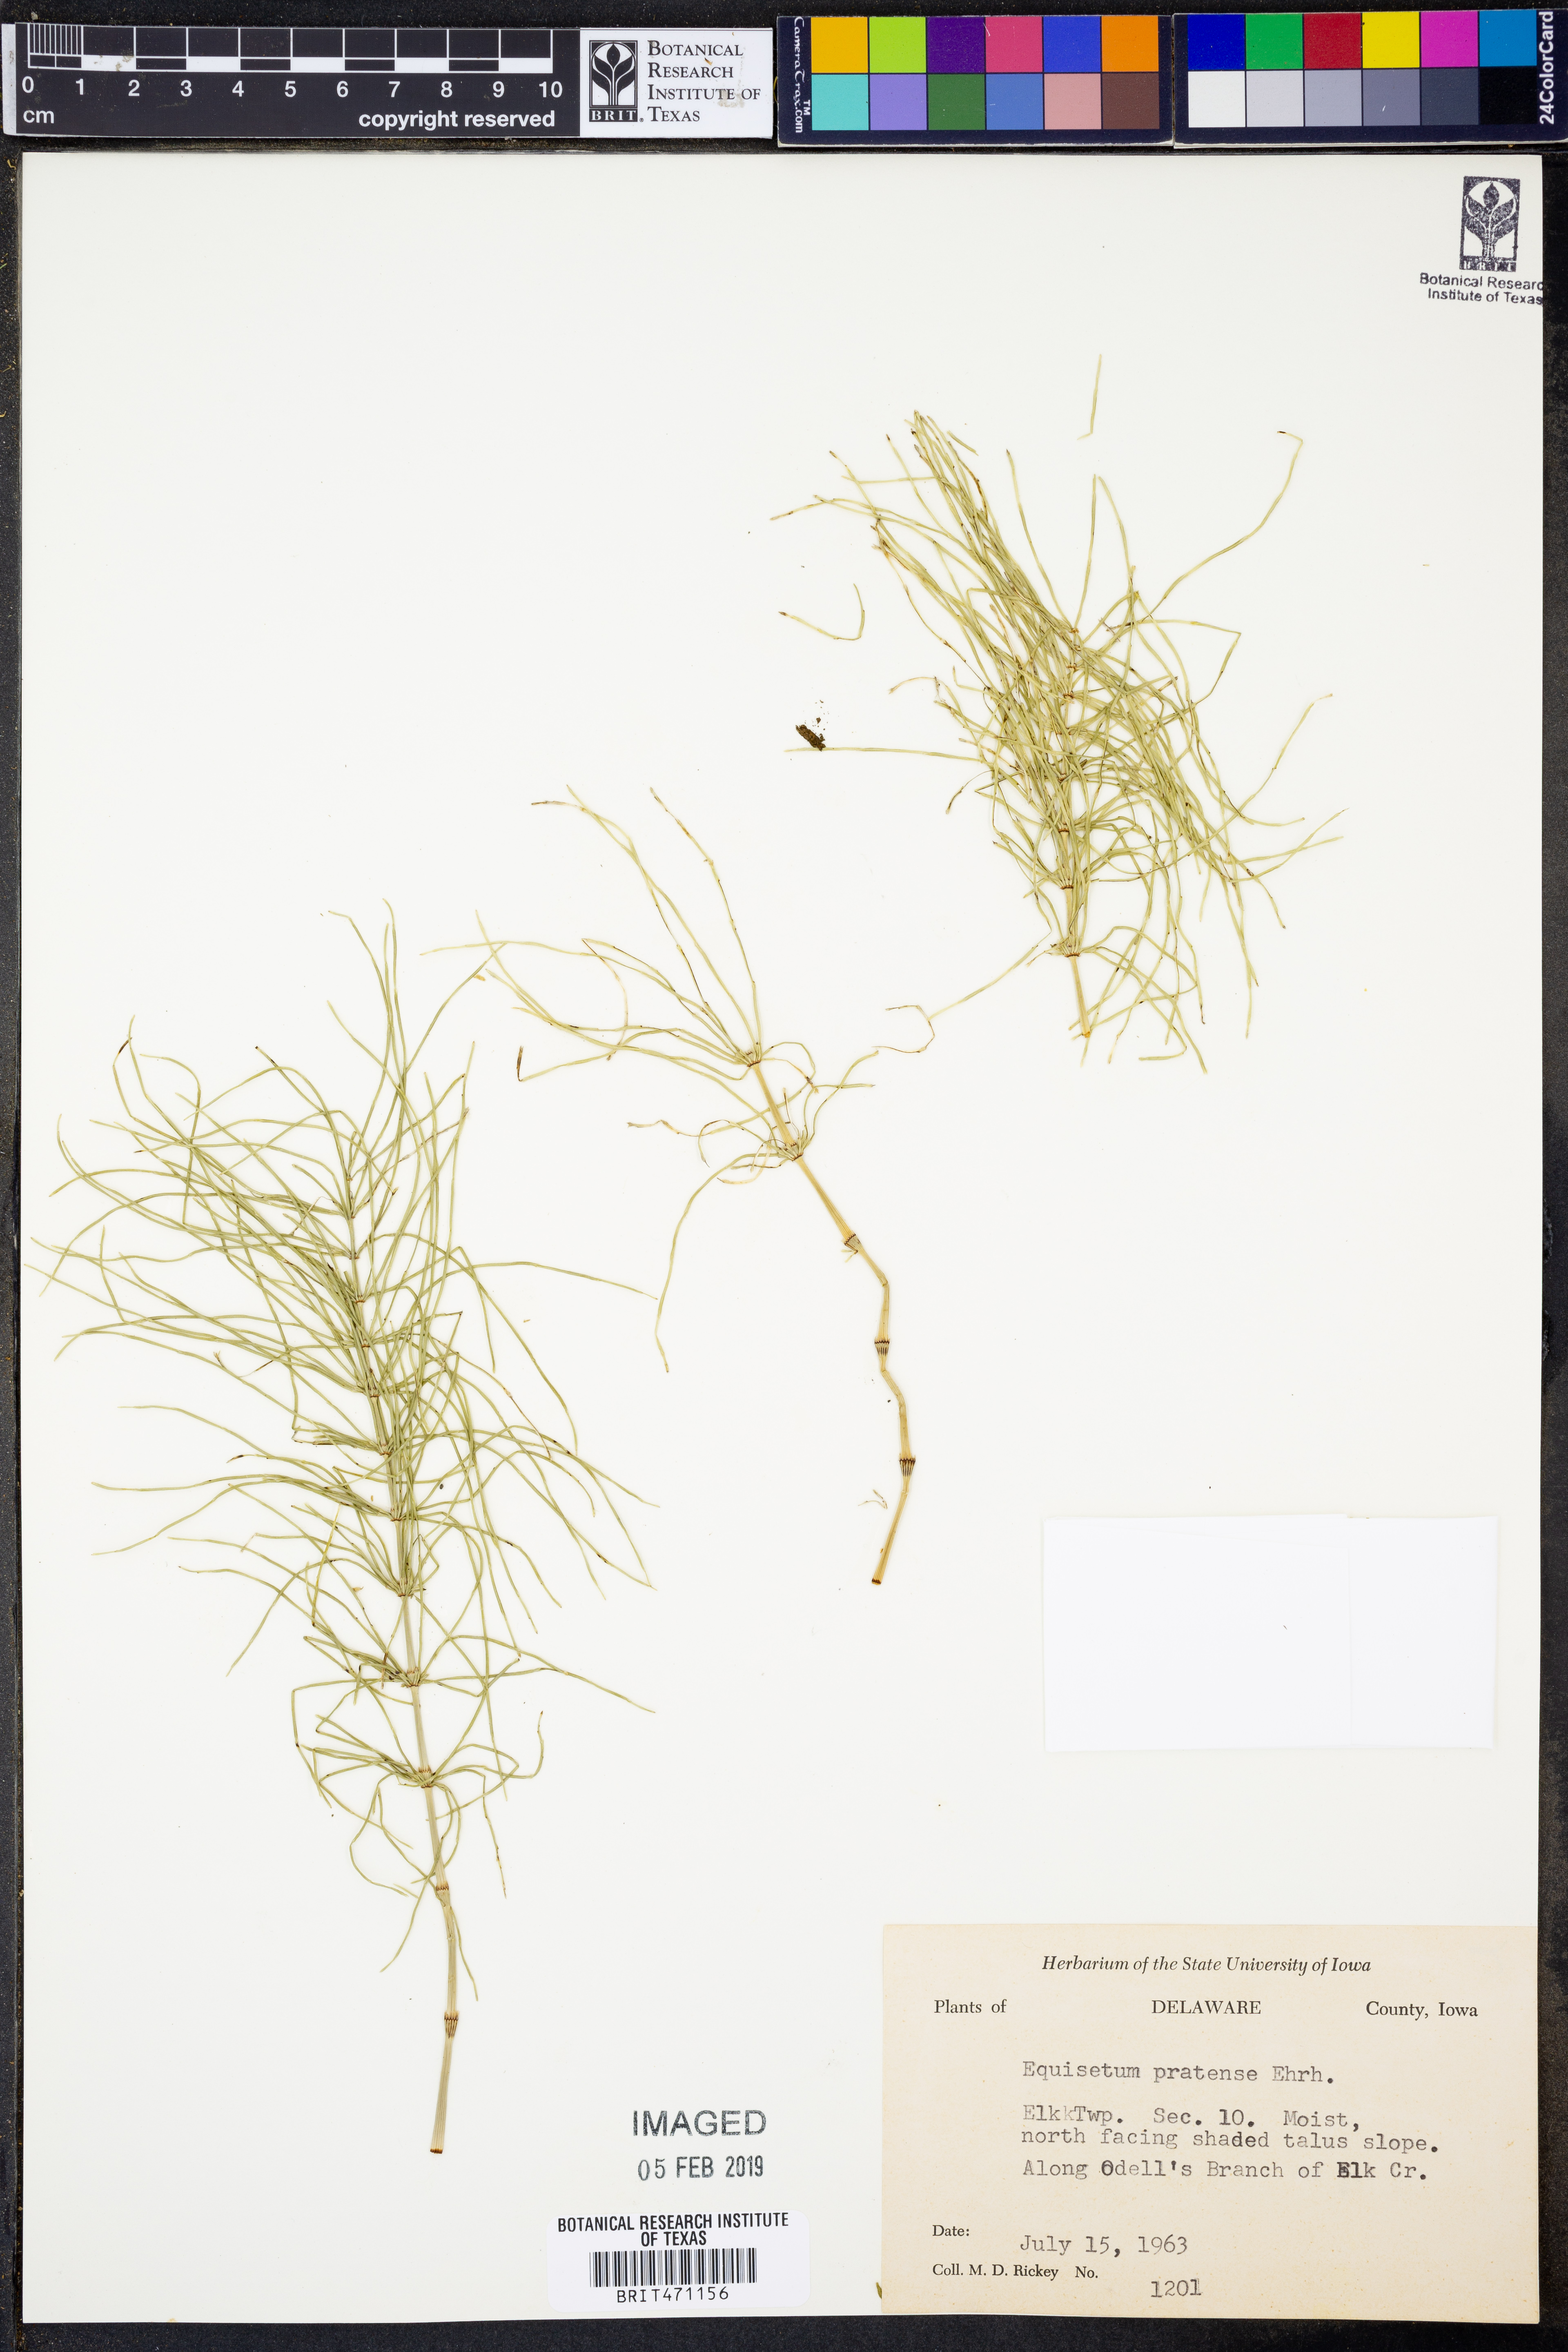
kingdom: Plantae
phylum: Tracheophyta
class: Polypodiopsida
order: Equisetales
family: Equisetaceae
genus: Equisetum
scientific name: Equisetum pratense
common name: Meadow horsetail
